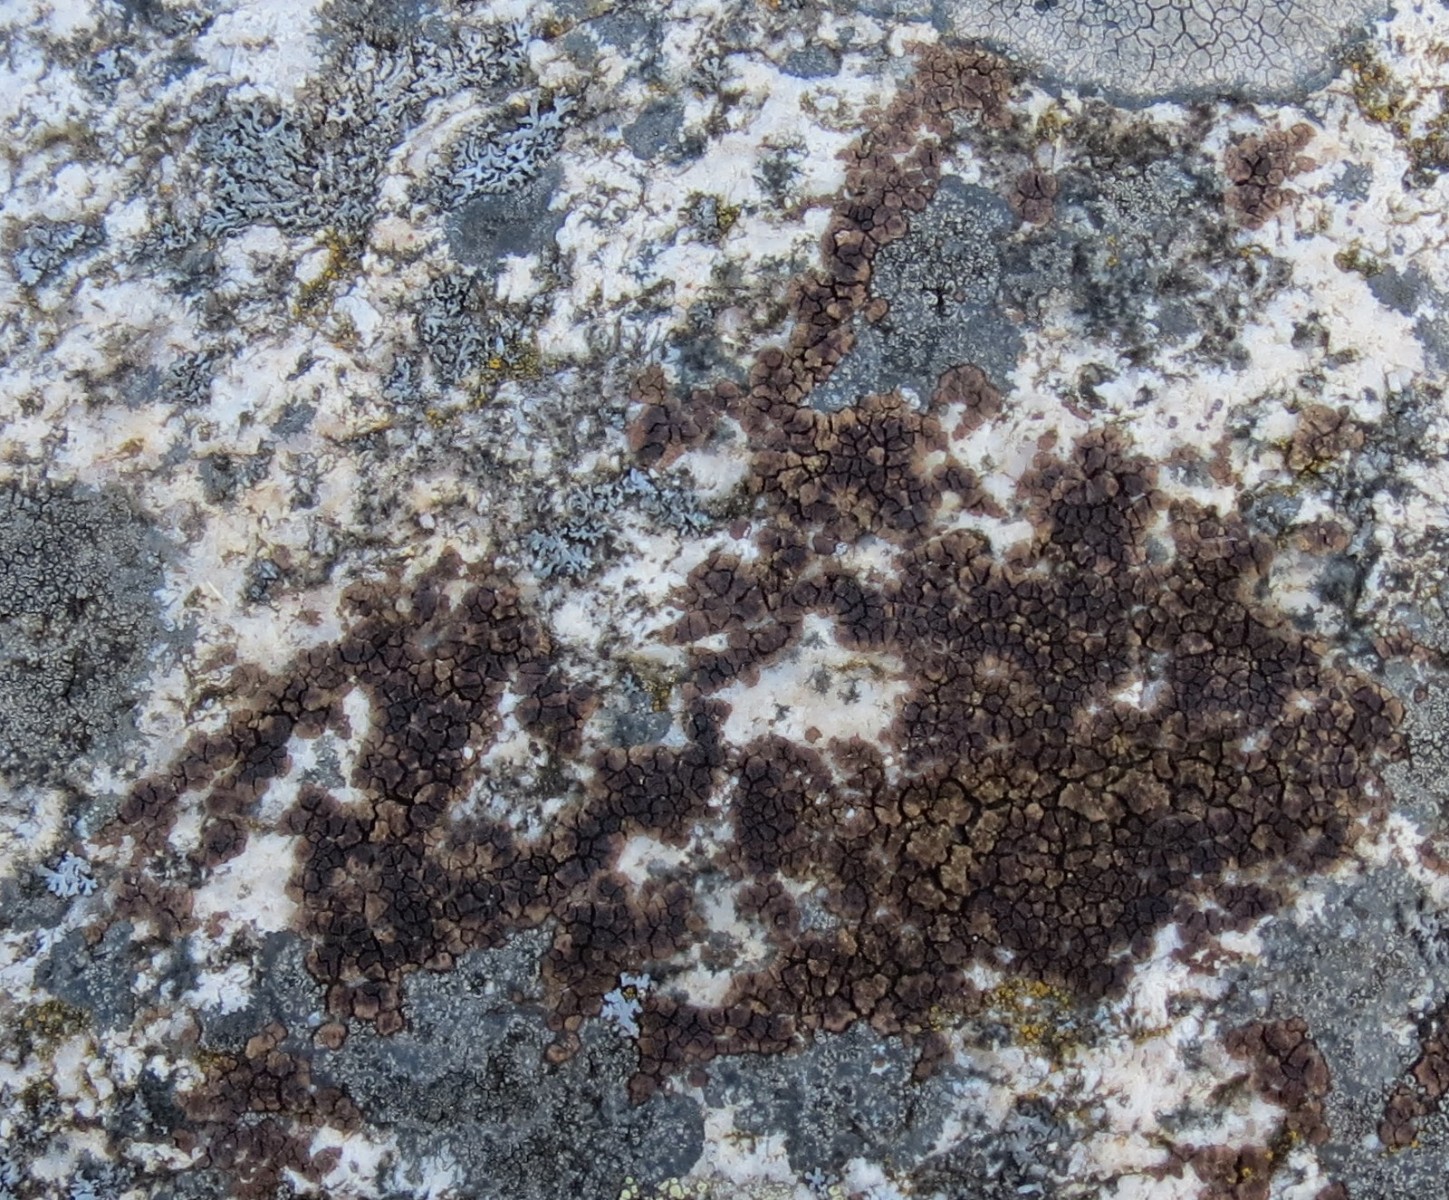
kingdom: Fungi
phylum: Ascomycota
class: Lecanoromycetes
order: Acarosporales
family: Acarosporaceae
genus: Acarospora
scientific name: Acarospora fuscata
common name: brun småsporelav
